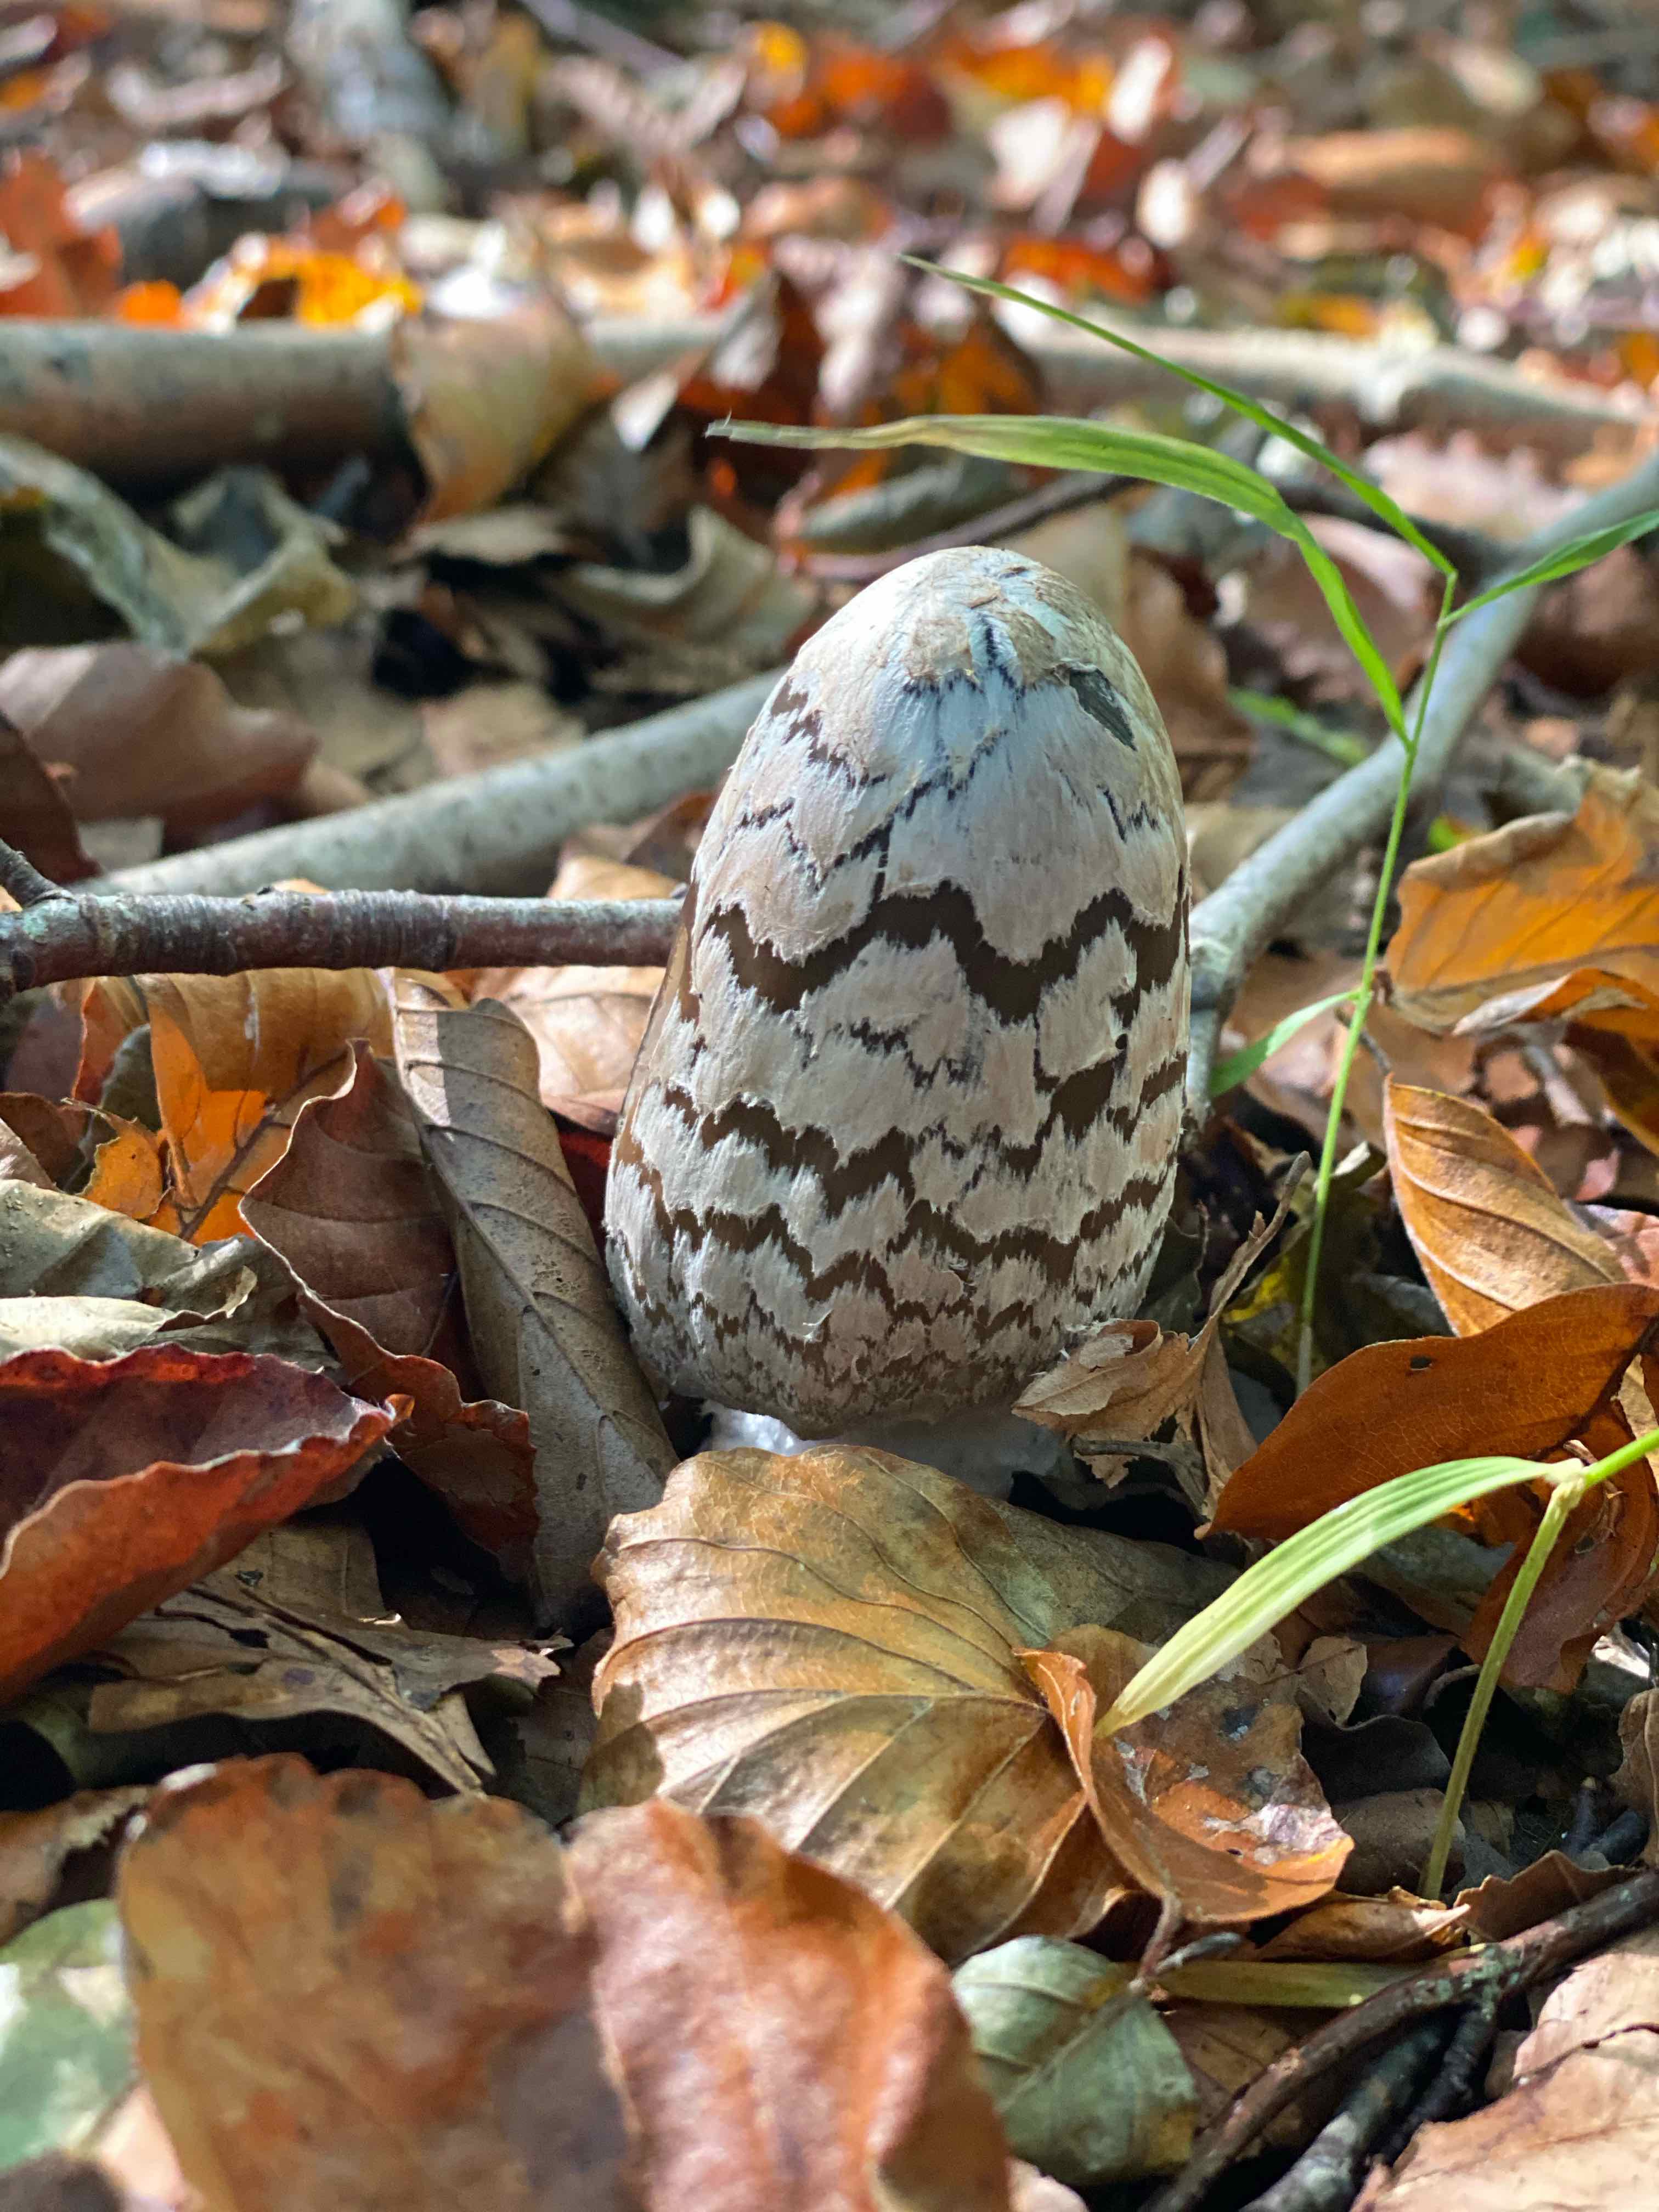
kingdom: Fungi
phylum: Basidiomycota
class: Agaricomycetes
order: Agaricales
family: Psathyrellaceae
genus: Coprinopsis
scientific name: Coprinopsis picacea
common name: skade-blækhat
